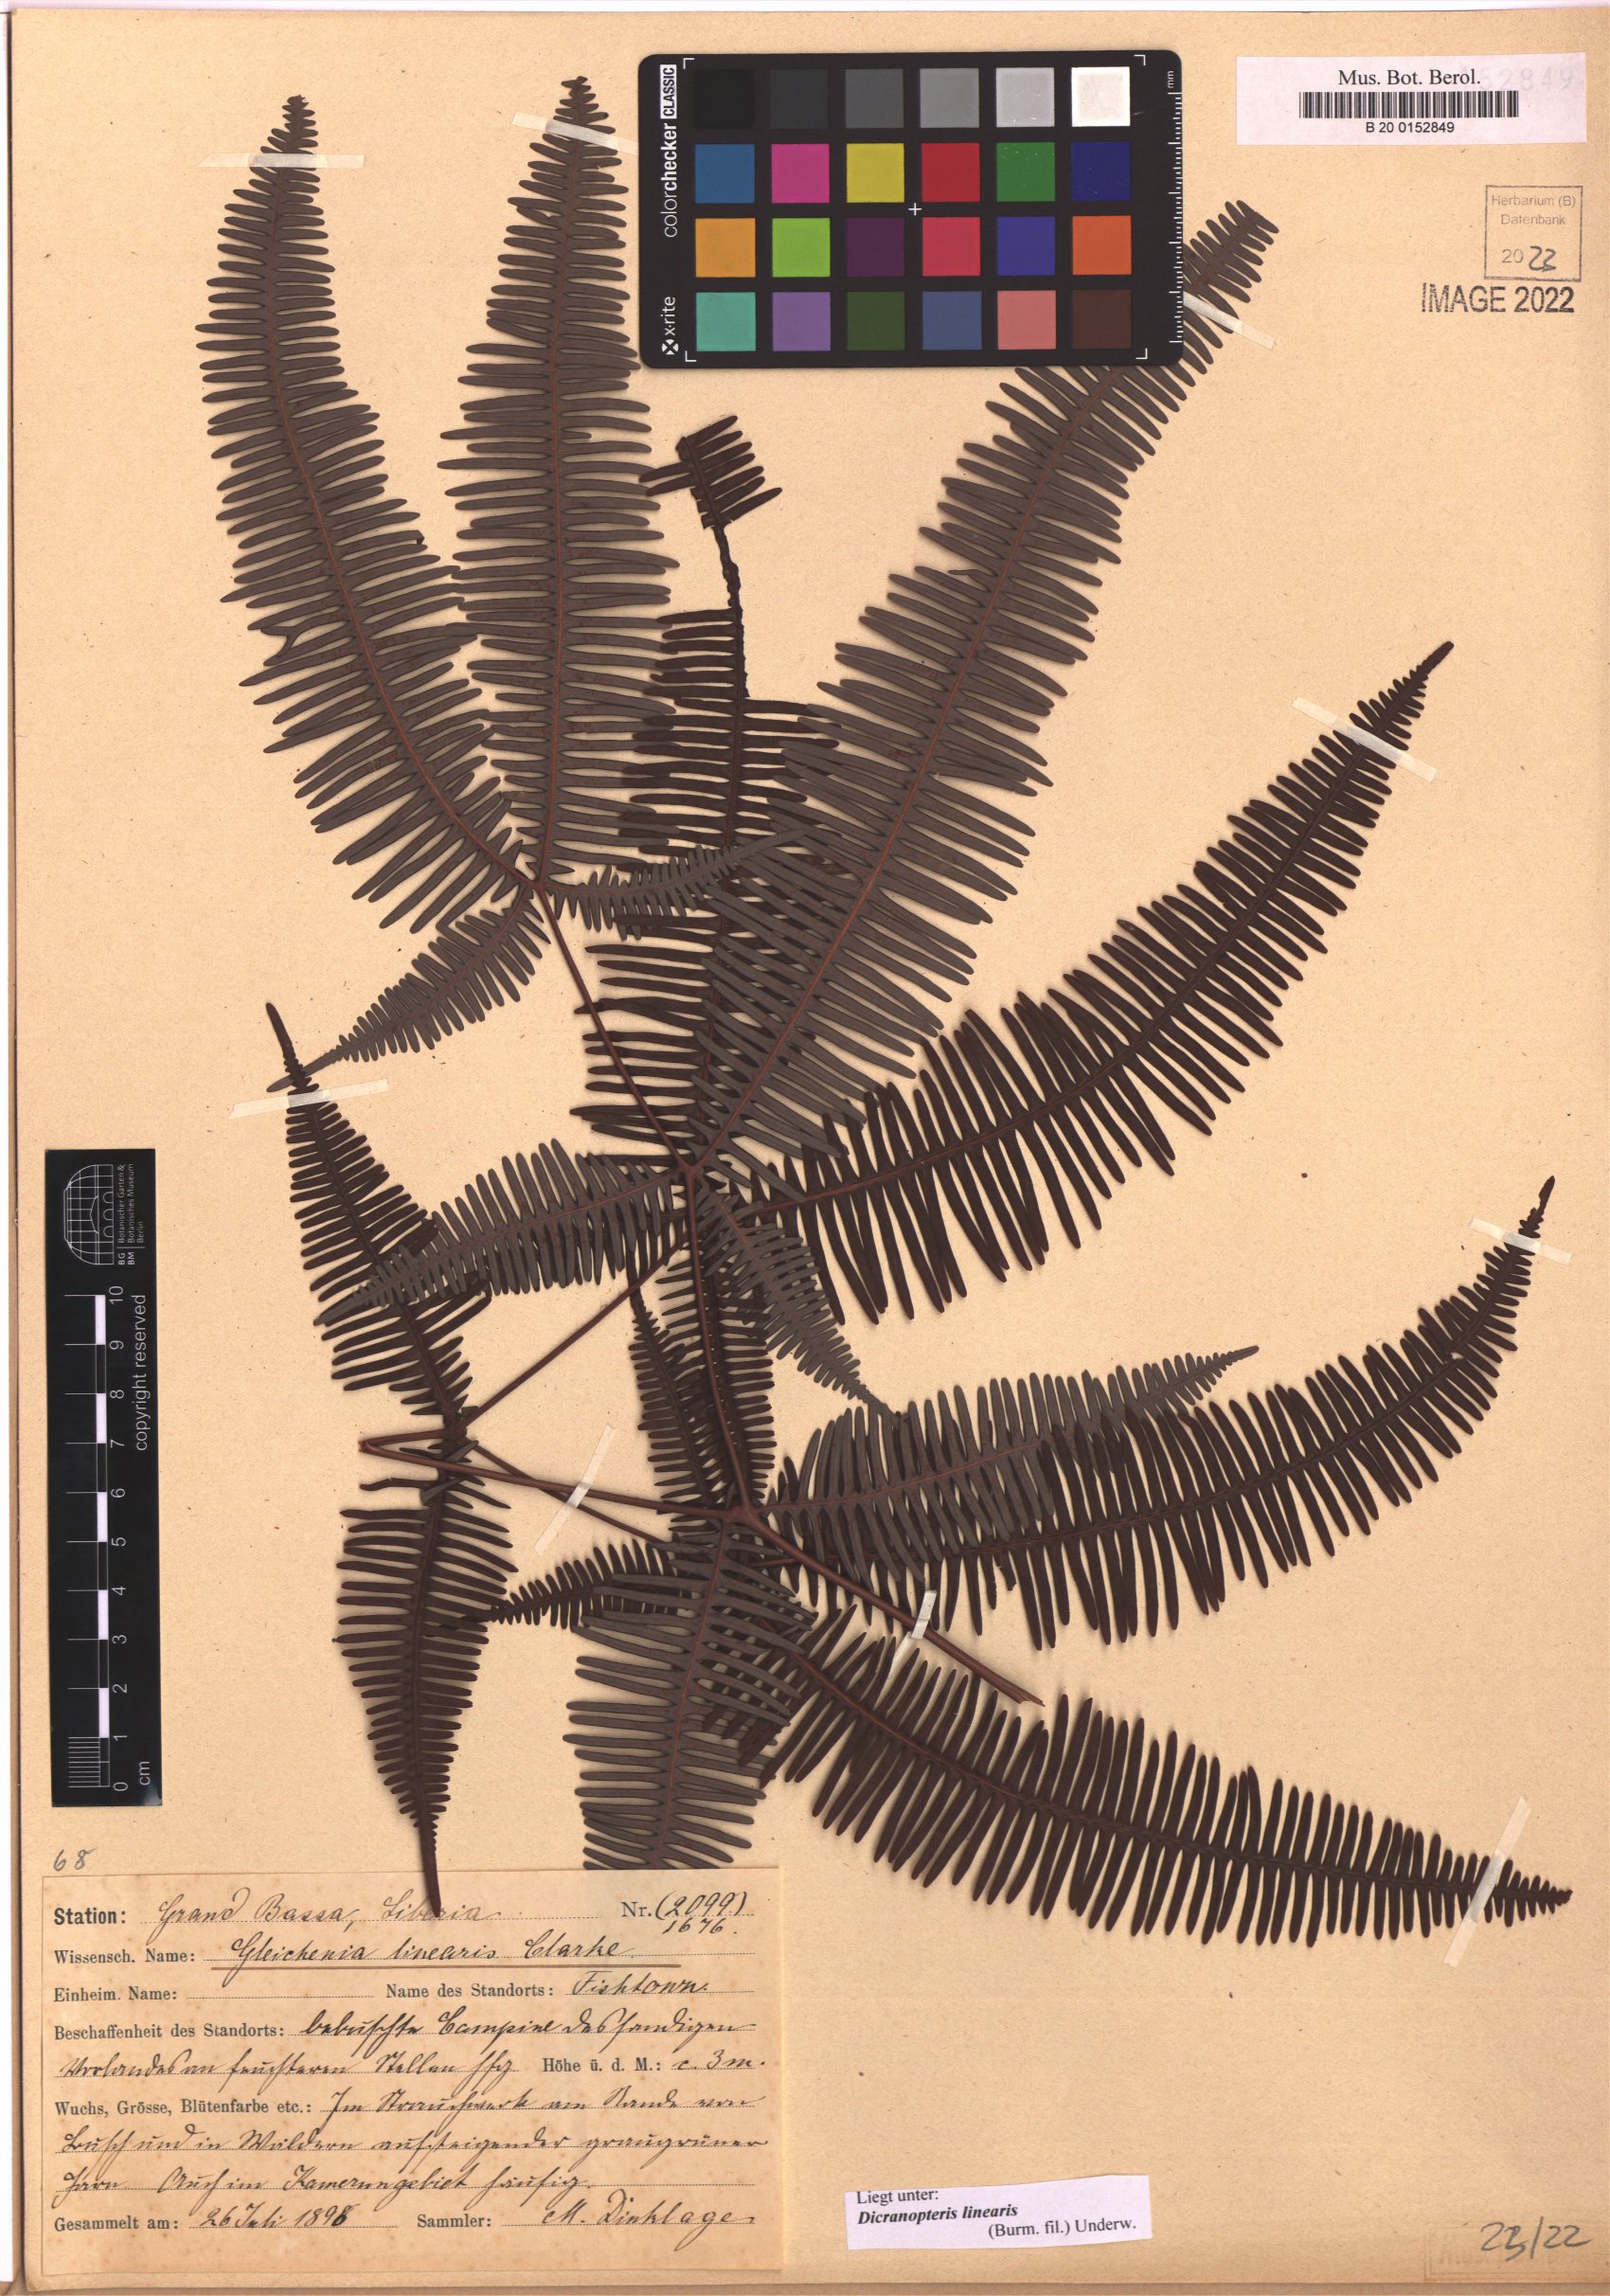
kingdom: Plantae
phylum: Tracheophyta
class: Polypodiopsida
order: Gleicheniales
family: Gleicheniaceae
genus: Dicranopteris
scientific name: Dicranopteris linearis
